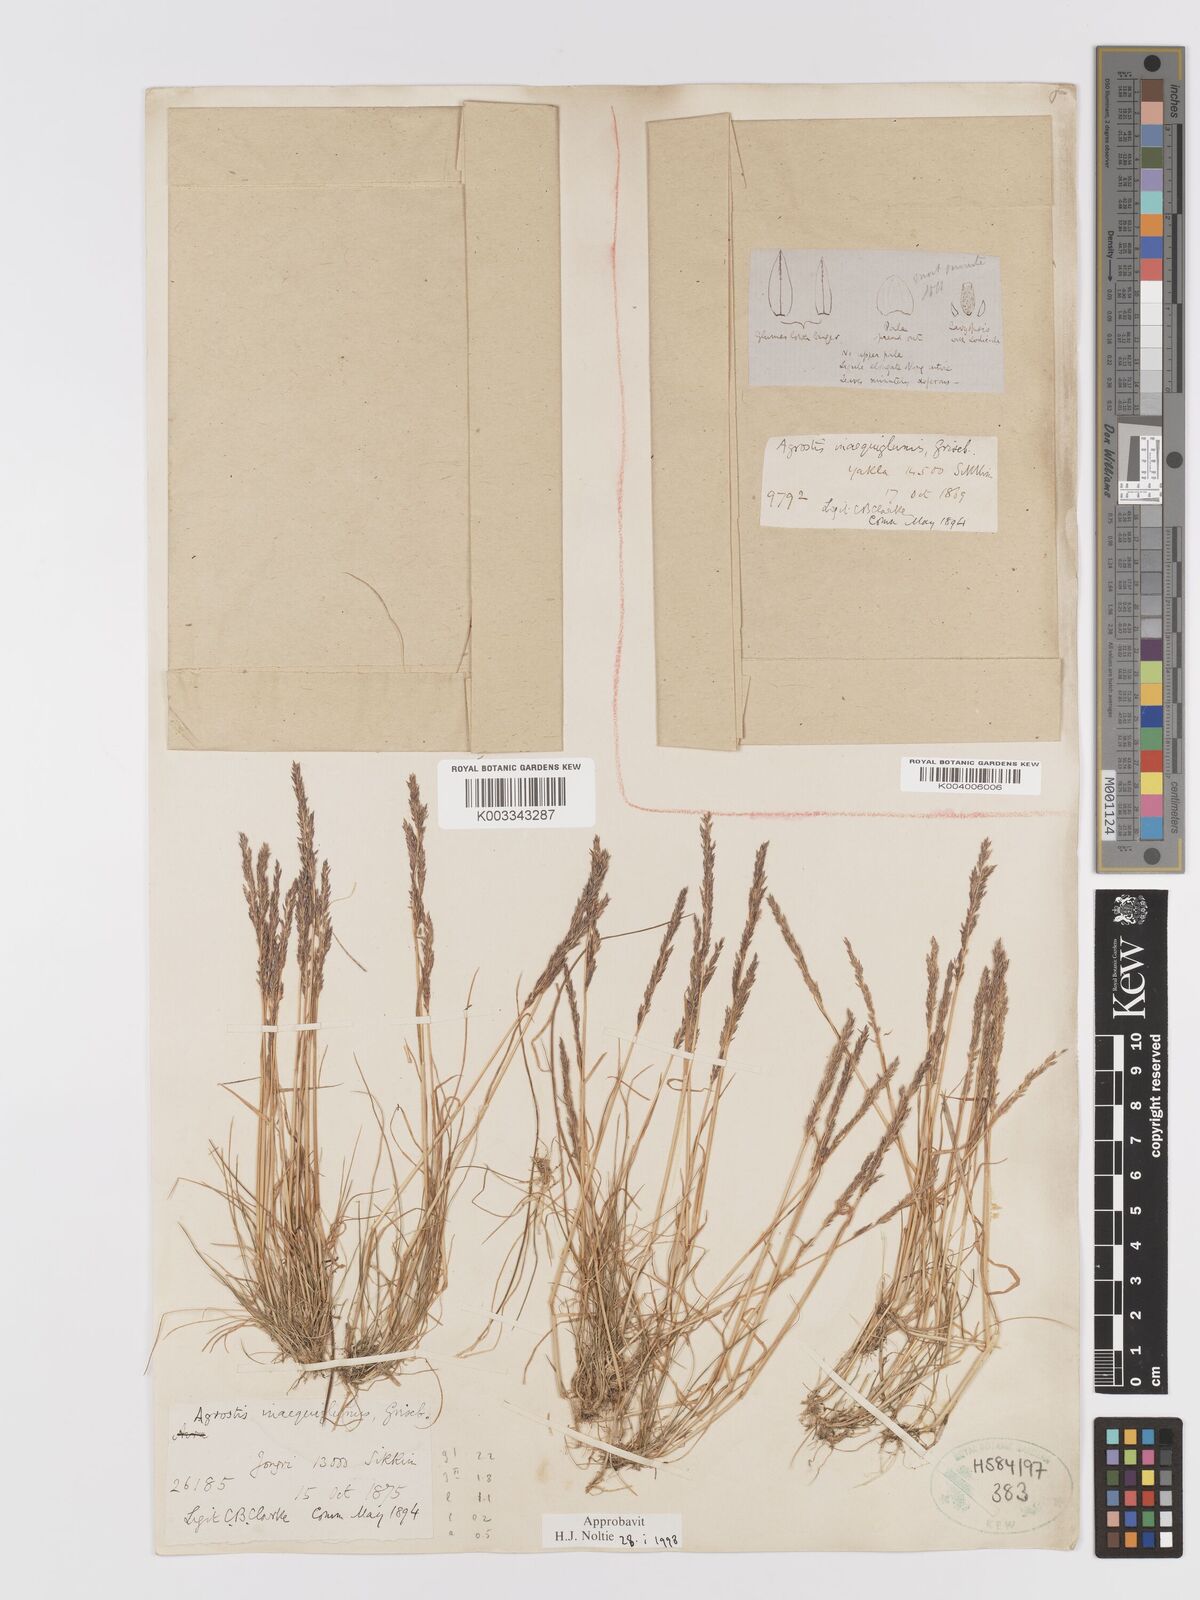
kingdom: Plantae
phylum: Tracheophyta
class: Liliopsida
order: Poales
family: Poaceae
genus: Agrostis
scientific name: Agrostis
